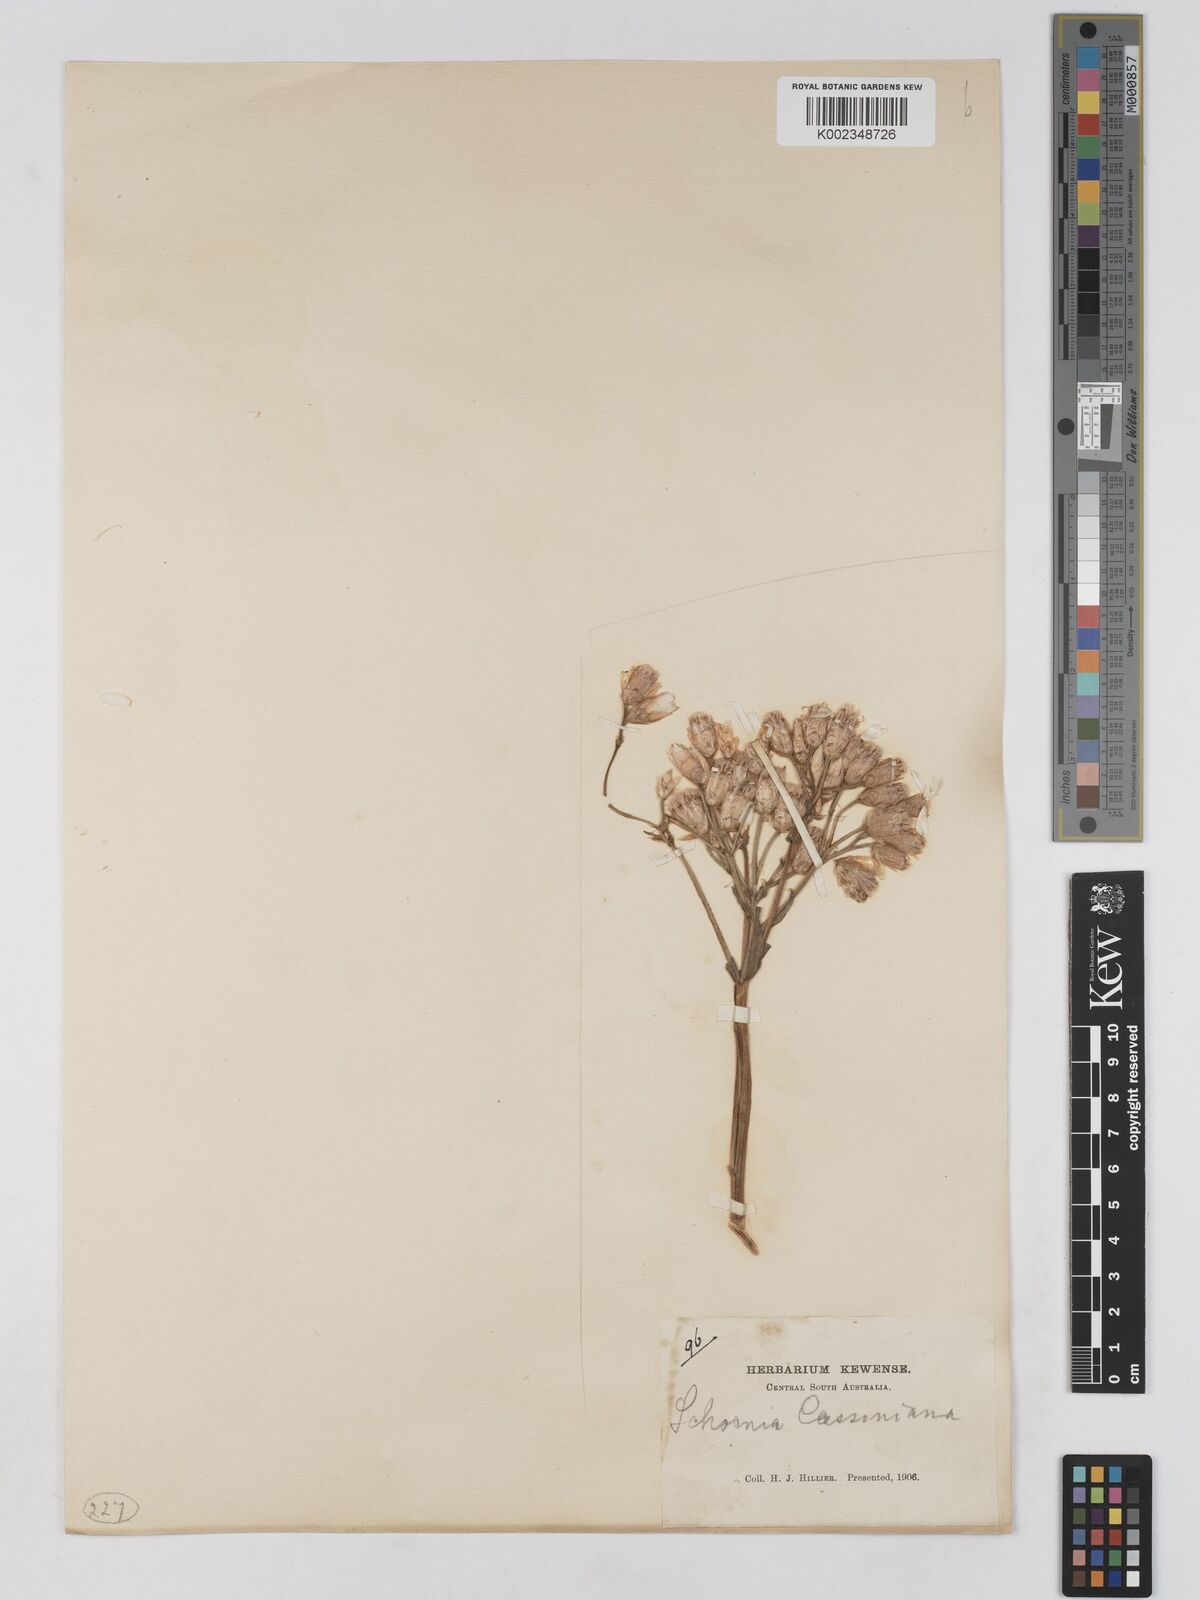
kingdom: Plantae
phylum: Tracheophyta
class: Magnoliopsida
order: Asterales
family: Asteraceae
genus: Schoenia
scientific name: Schoenia cassiniana
